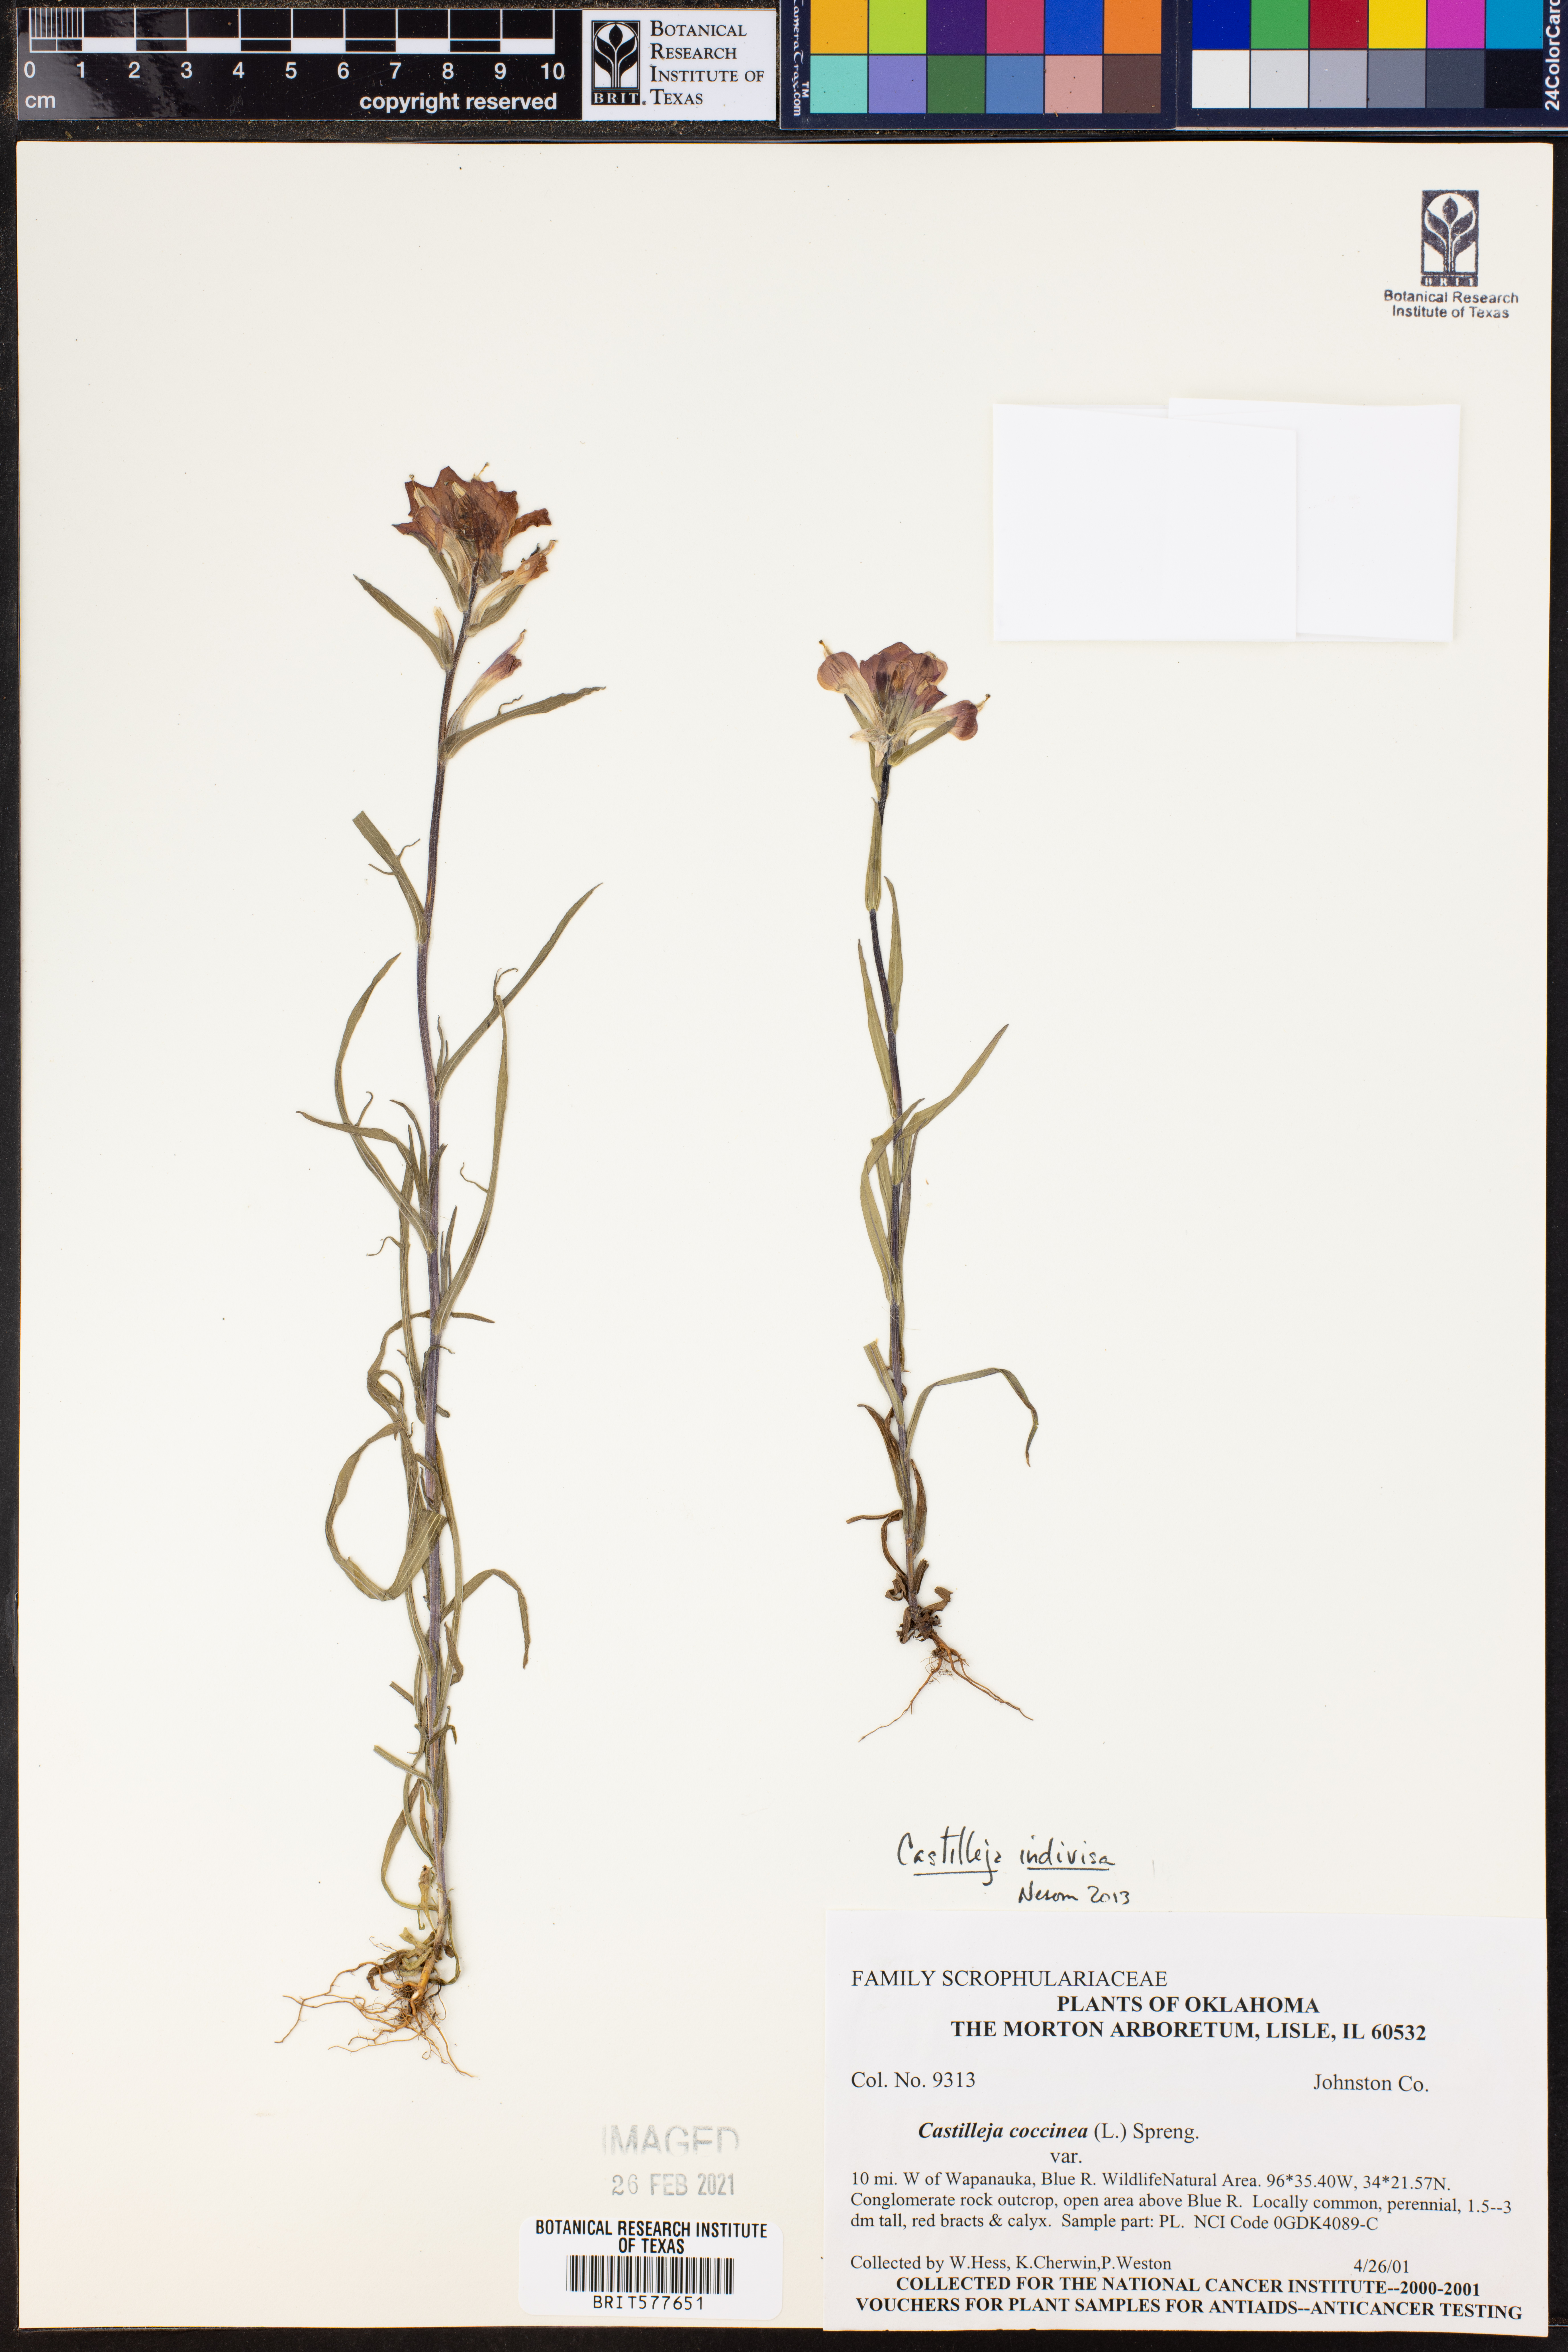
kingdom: Plantae
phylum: Tracheophyta
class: Magnoliopsida
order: Lamiales
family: Orobanchaceae
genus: Castilleja
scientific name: Castilleja indivisa
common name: Texas paintbrush
